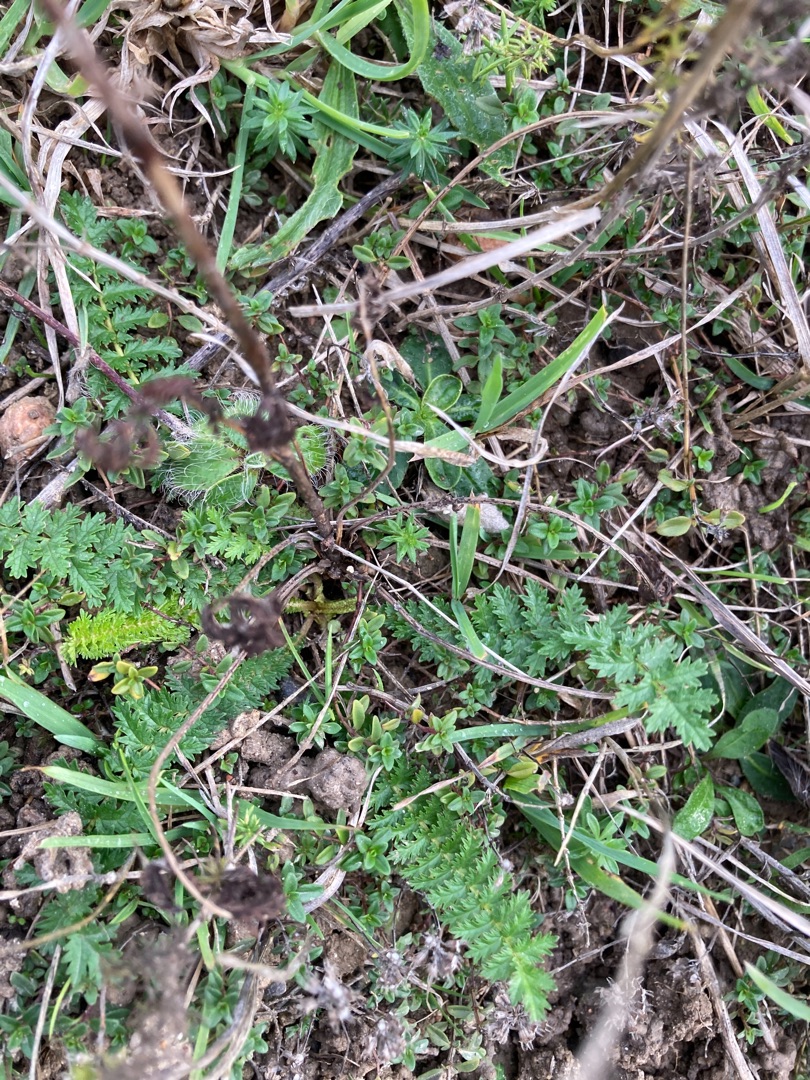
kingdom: Plantae
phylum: Tracheophyta
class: Magnoliopsida
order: Rosales
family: Rosaceae
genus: Filipendula
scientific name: Filipendula vulgaris
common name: Knoldet mjødurt
